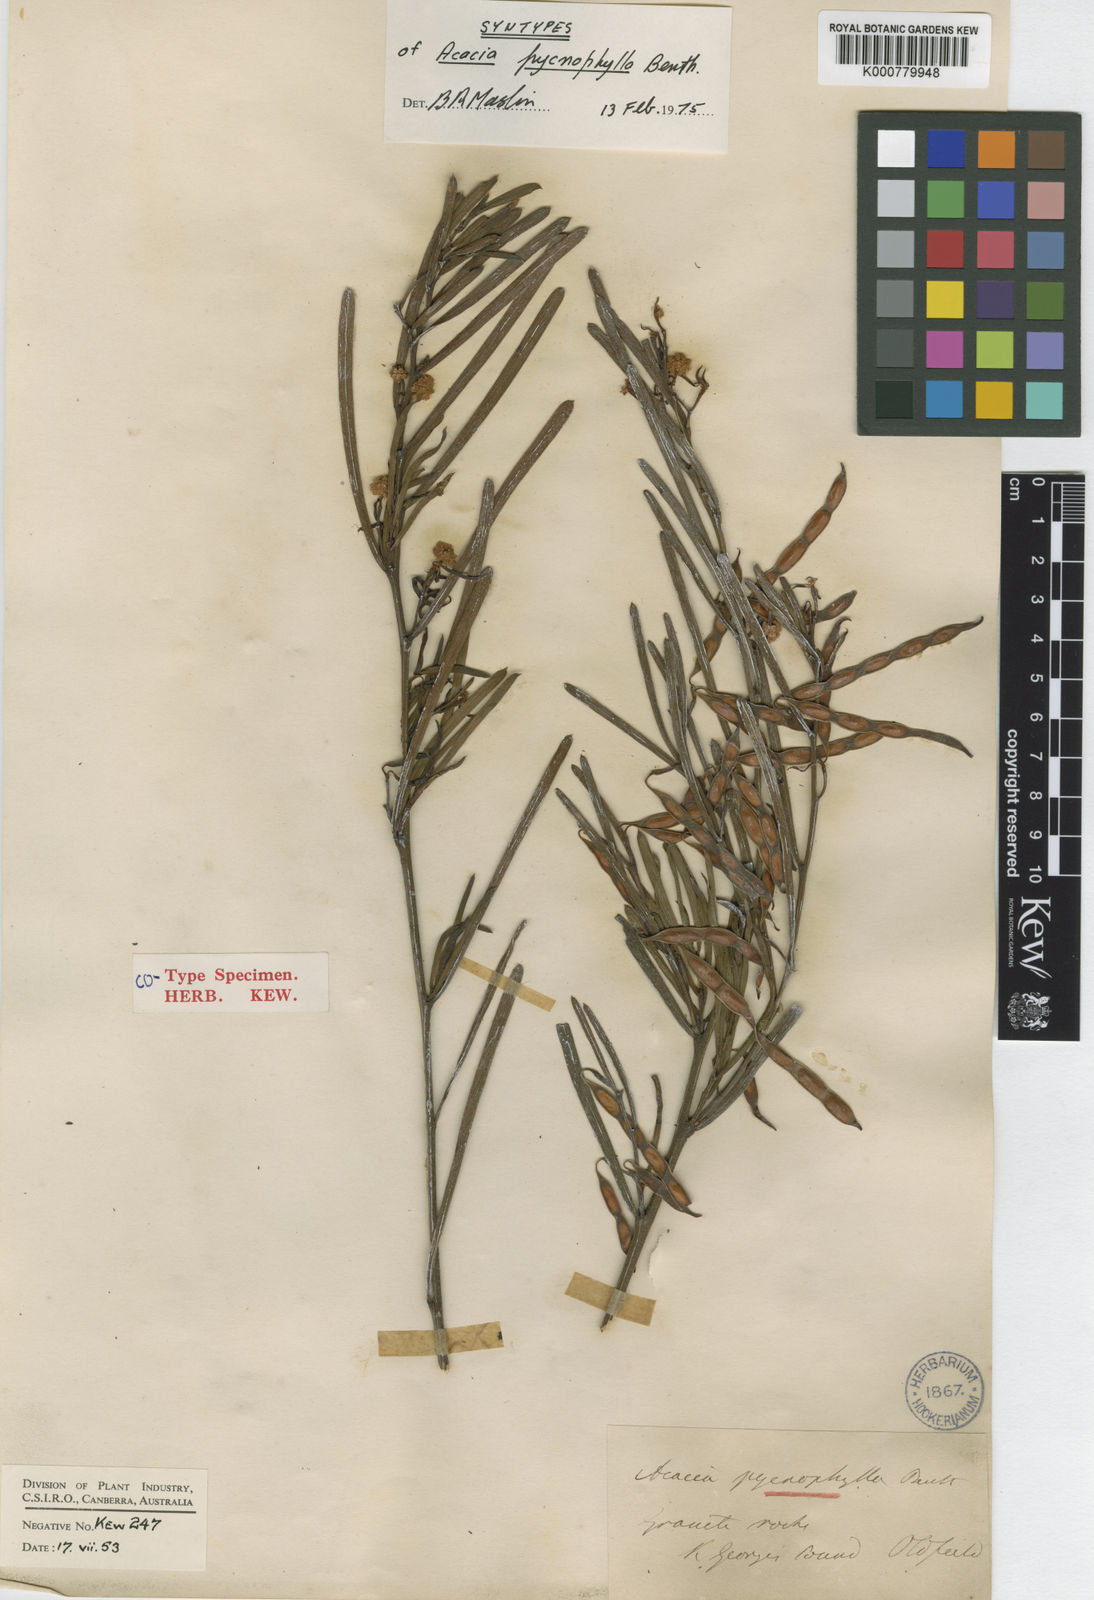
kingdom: Plantae
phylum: Tracheophyta
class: Magnoliopsida
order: Fabales
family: Fabaceae
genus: Acacia
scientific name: Acacia crassiuscula
